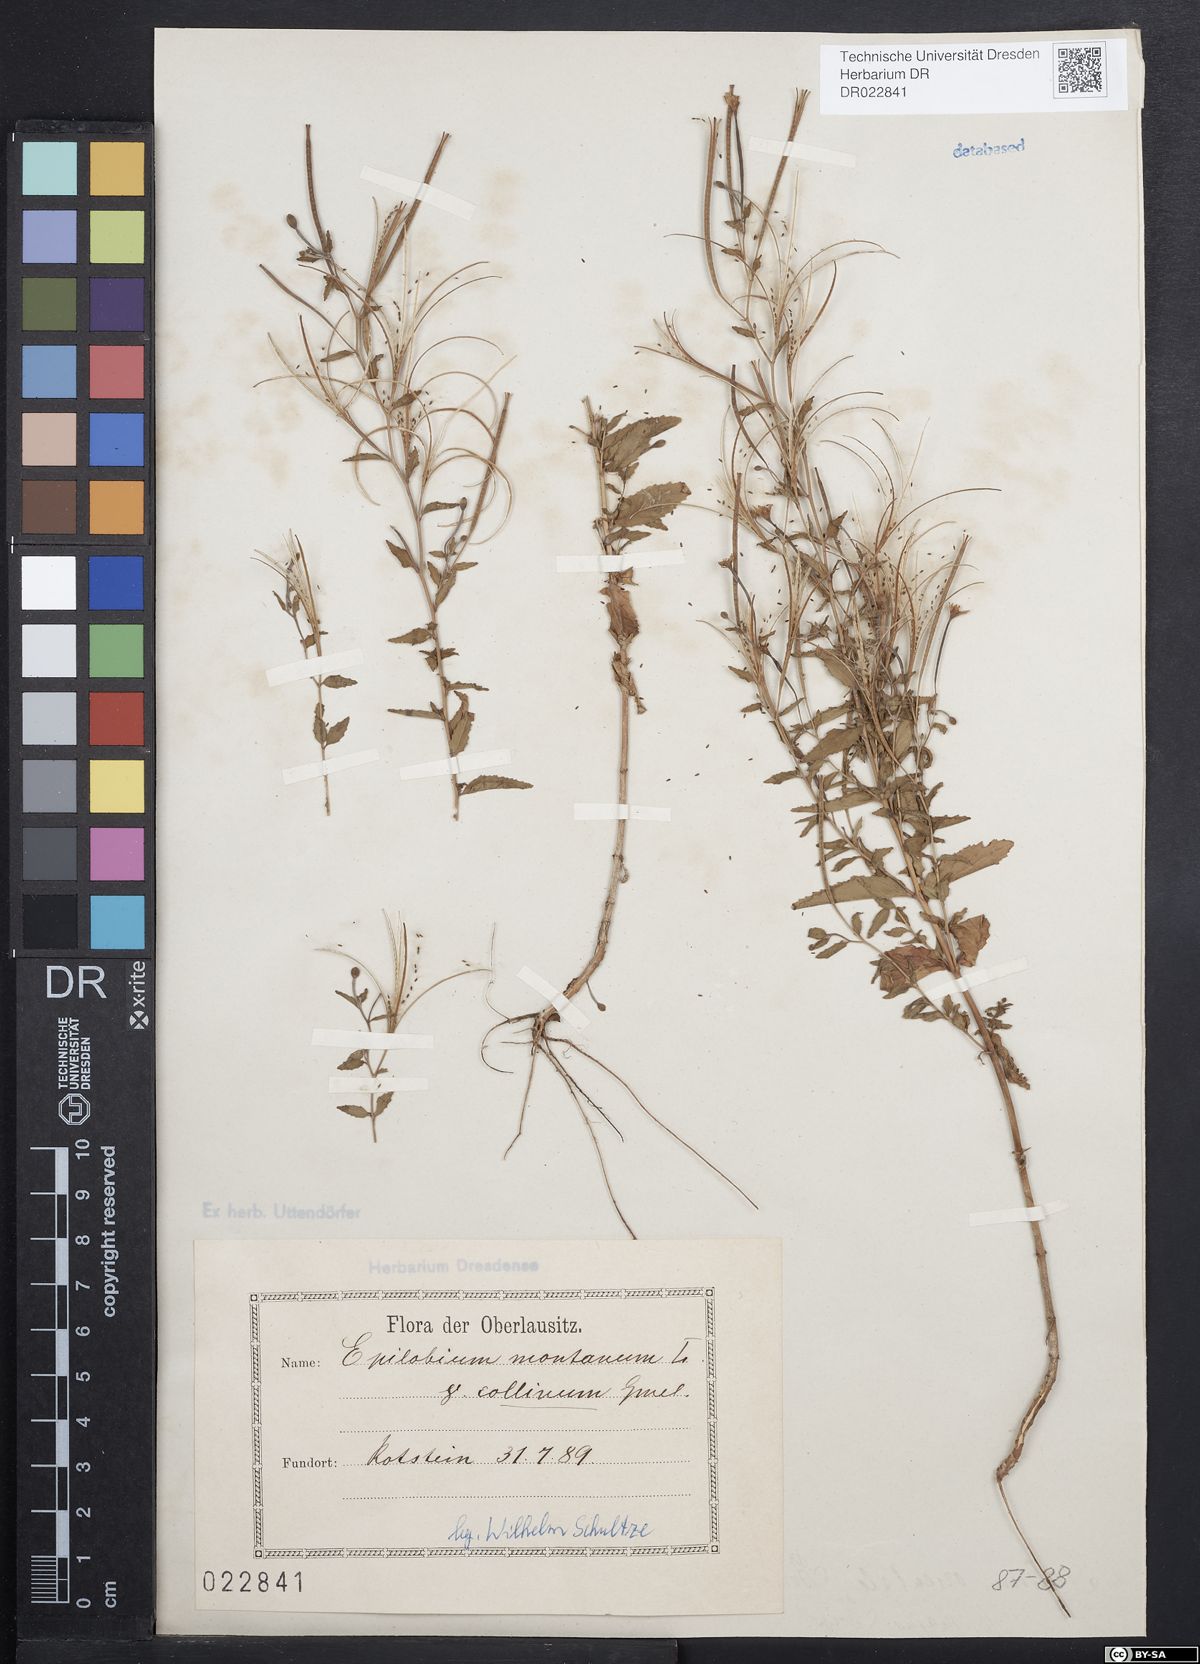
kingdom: Plantae
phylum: Tracheophyta
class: Magnoliopsida
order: Myrtales
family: Onagraceae
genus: Epilobium
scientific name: Epilobium collinum
